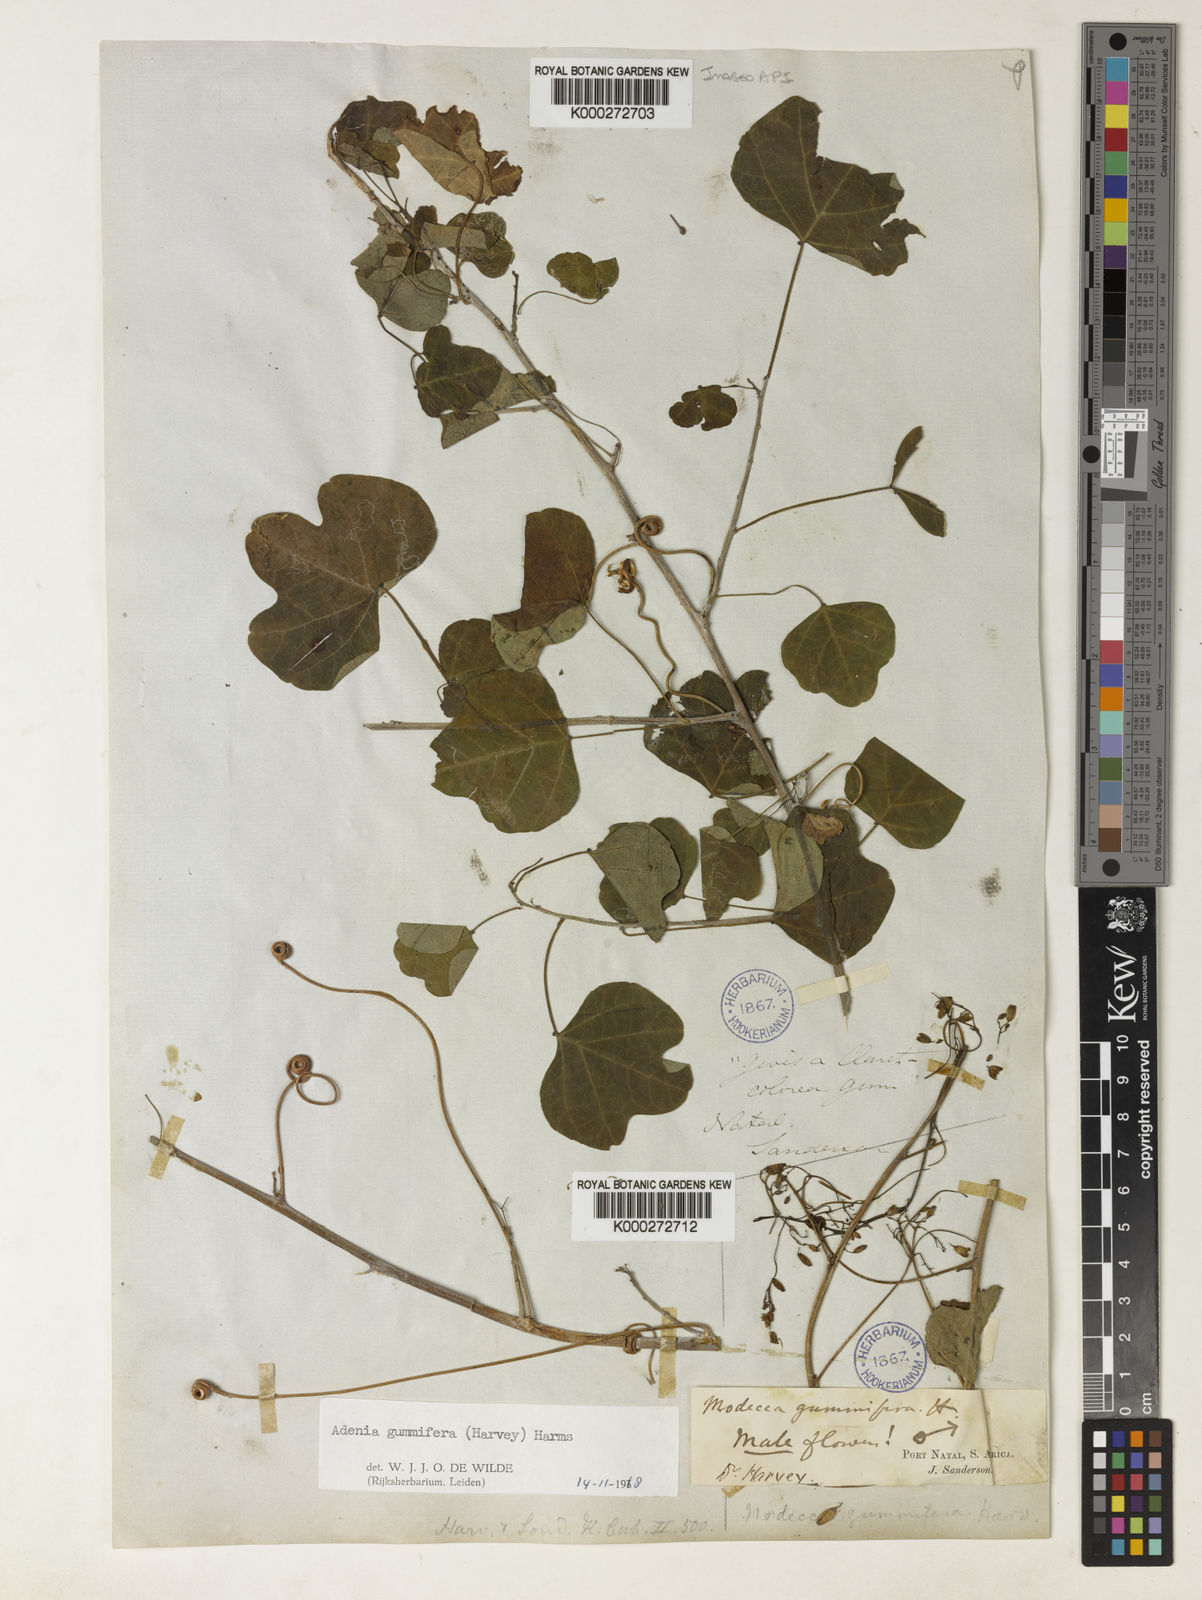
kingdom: Plantae
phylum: Tracheophyta
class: Magnoliopsida
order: Malpighiales
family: Passifloraceae
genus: Adenia
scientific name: Adenia cissampeloides
